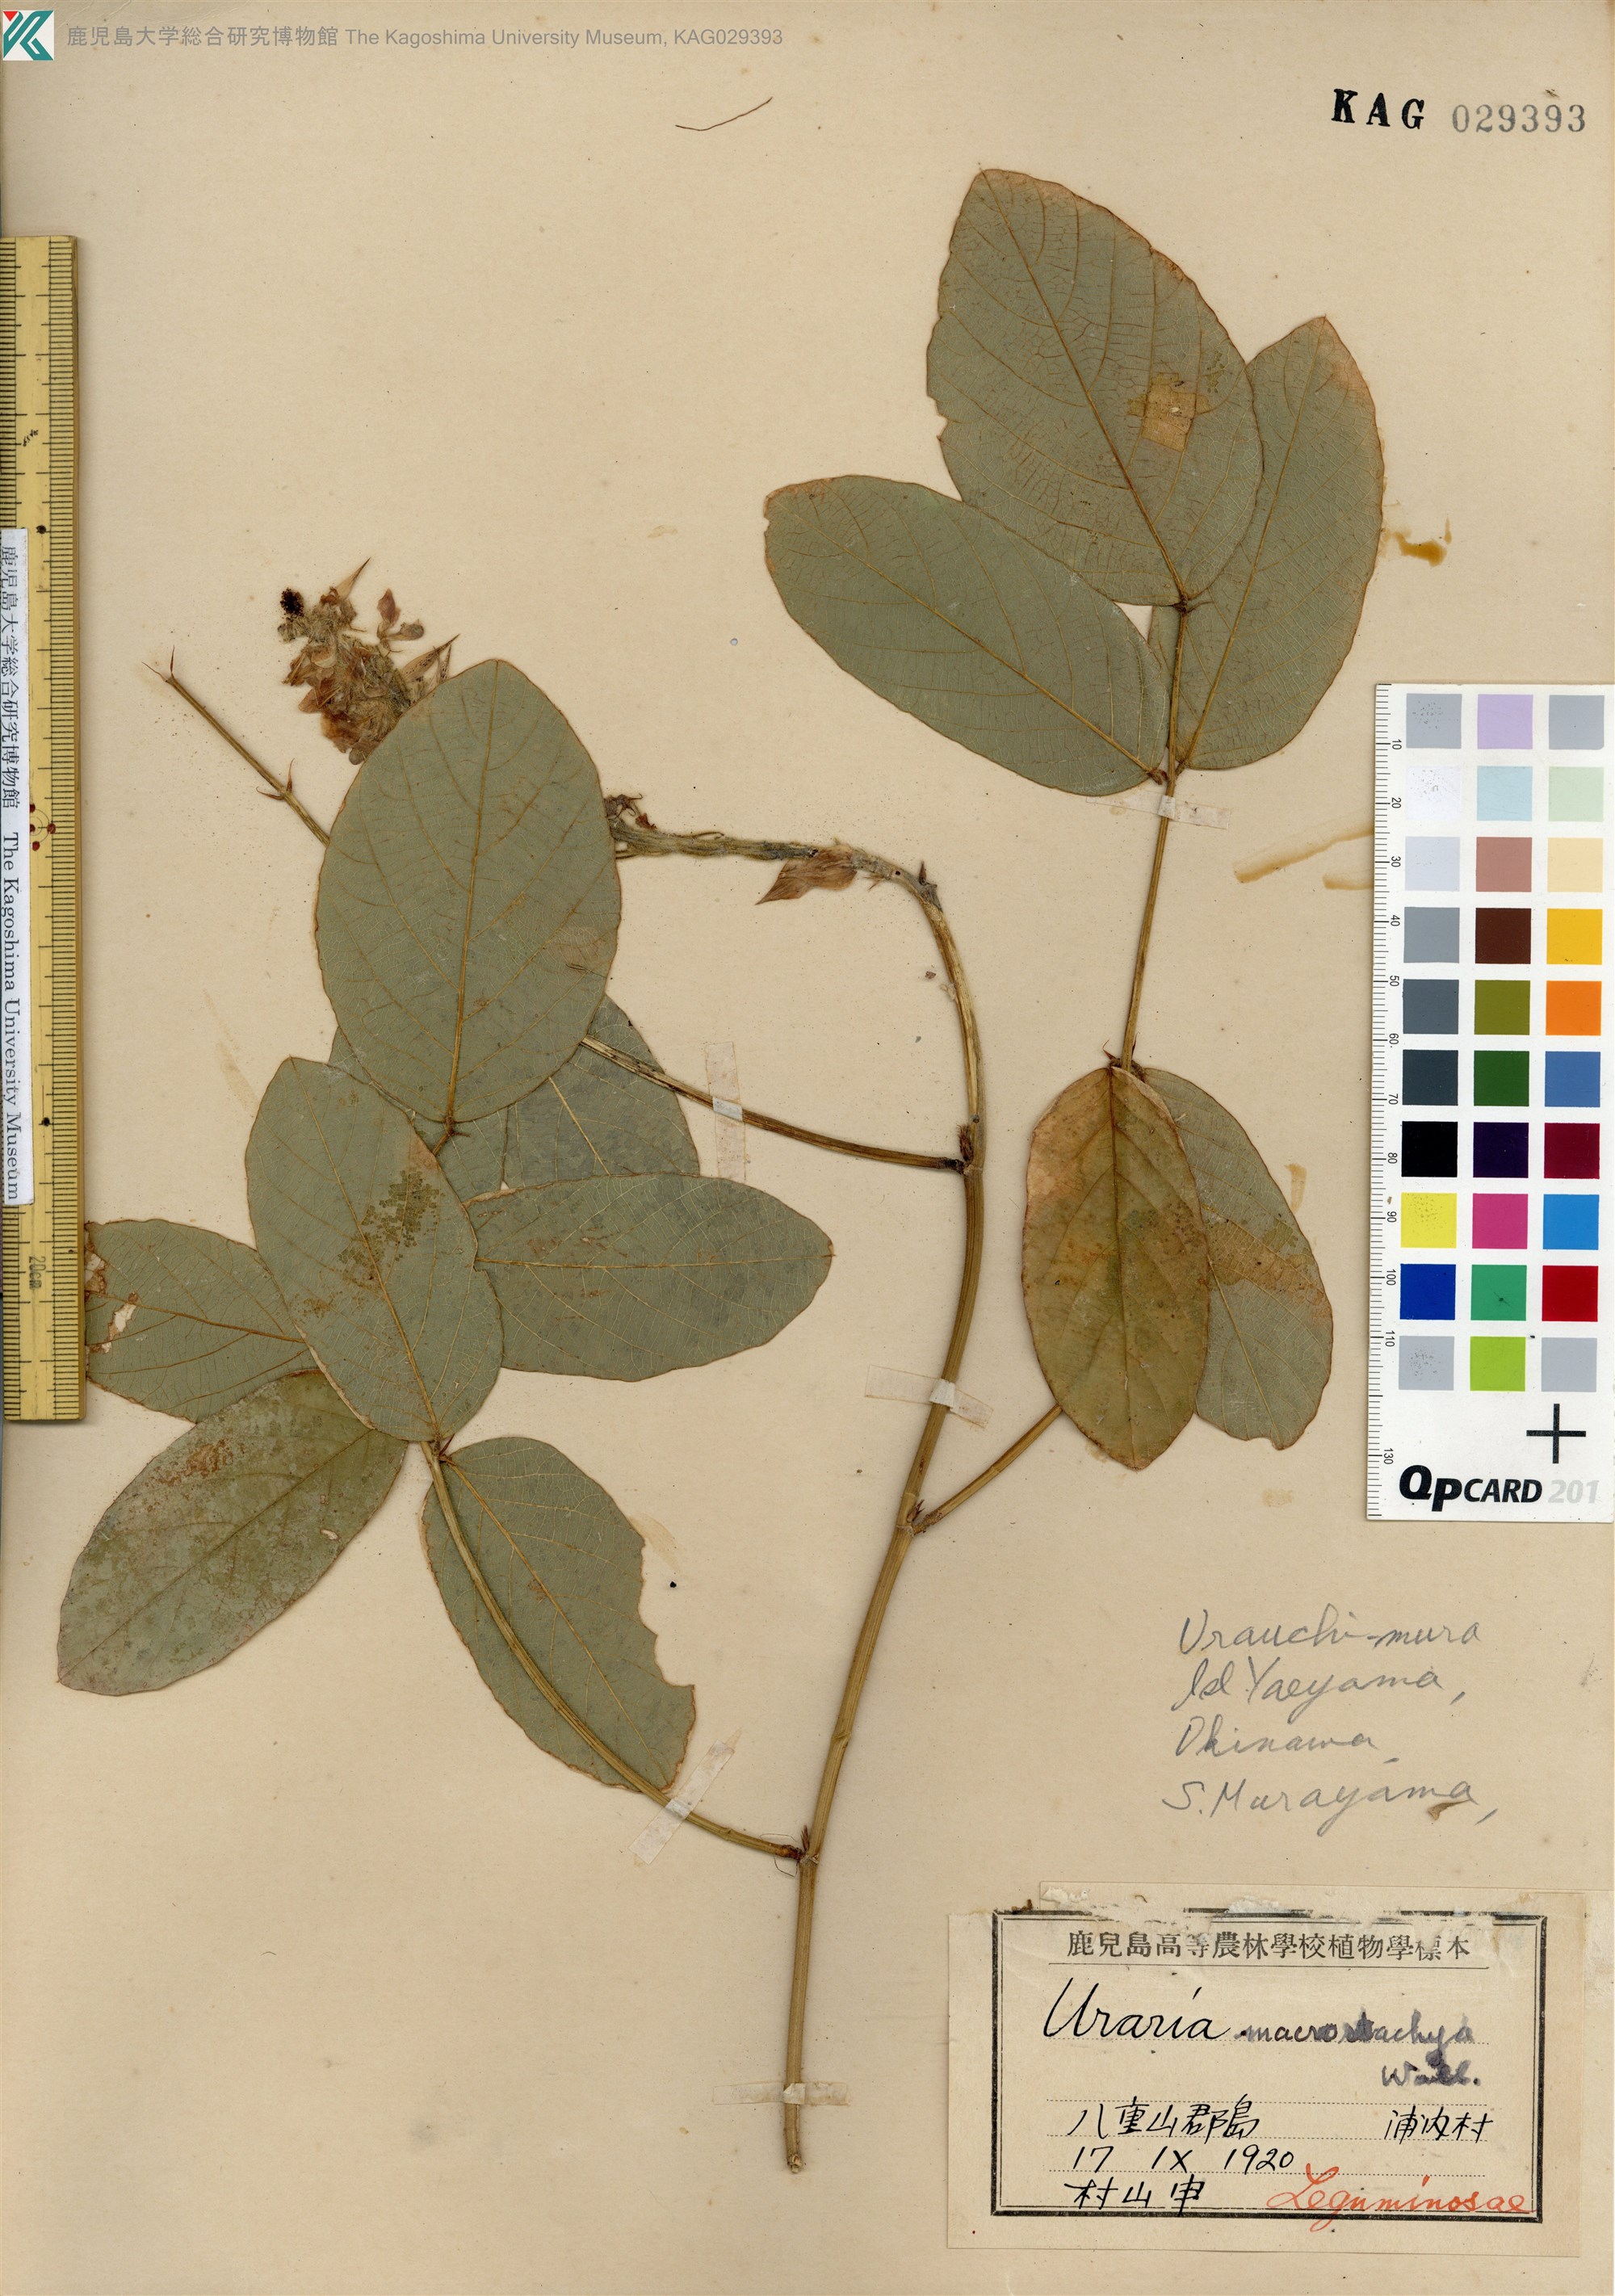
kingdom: Plantae
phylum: Tracheophyta
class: Magnoliopsida
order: Fabales
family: Fabaceae
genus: Uraria
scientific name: Uraria crinita
